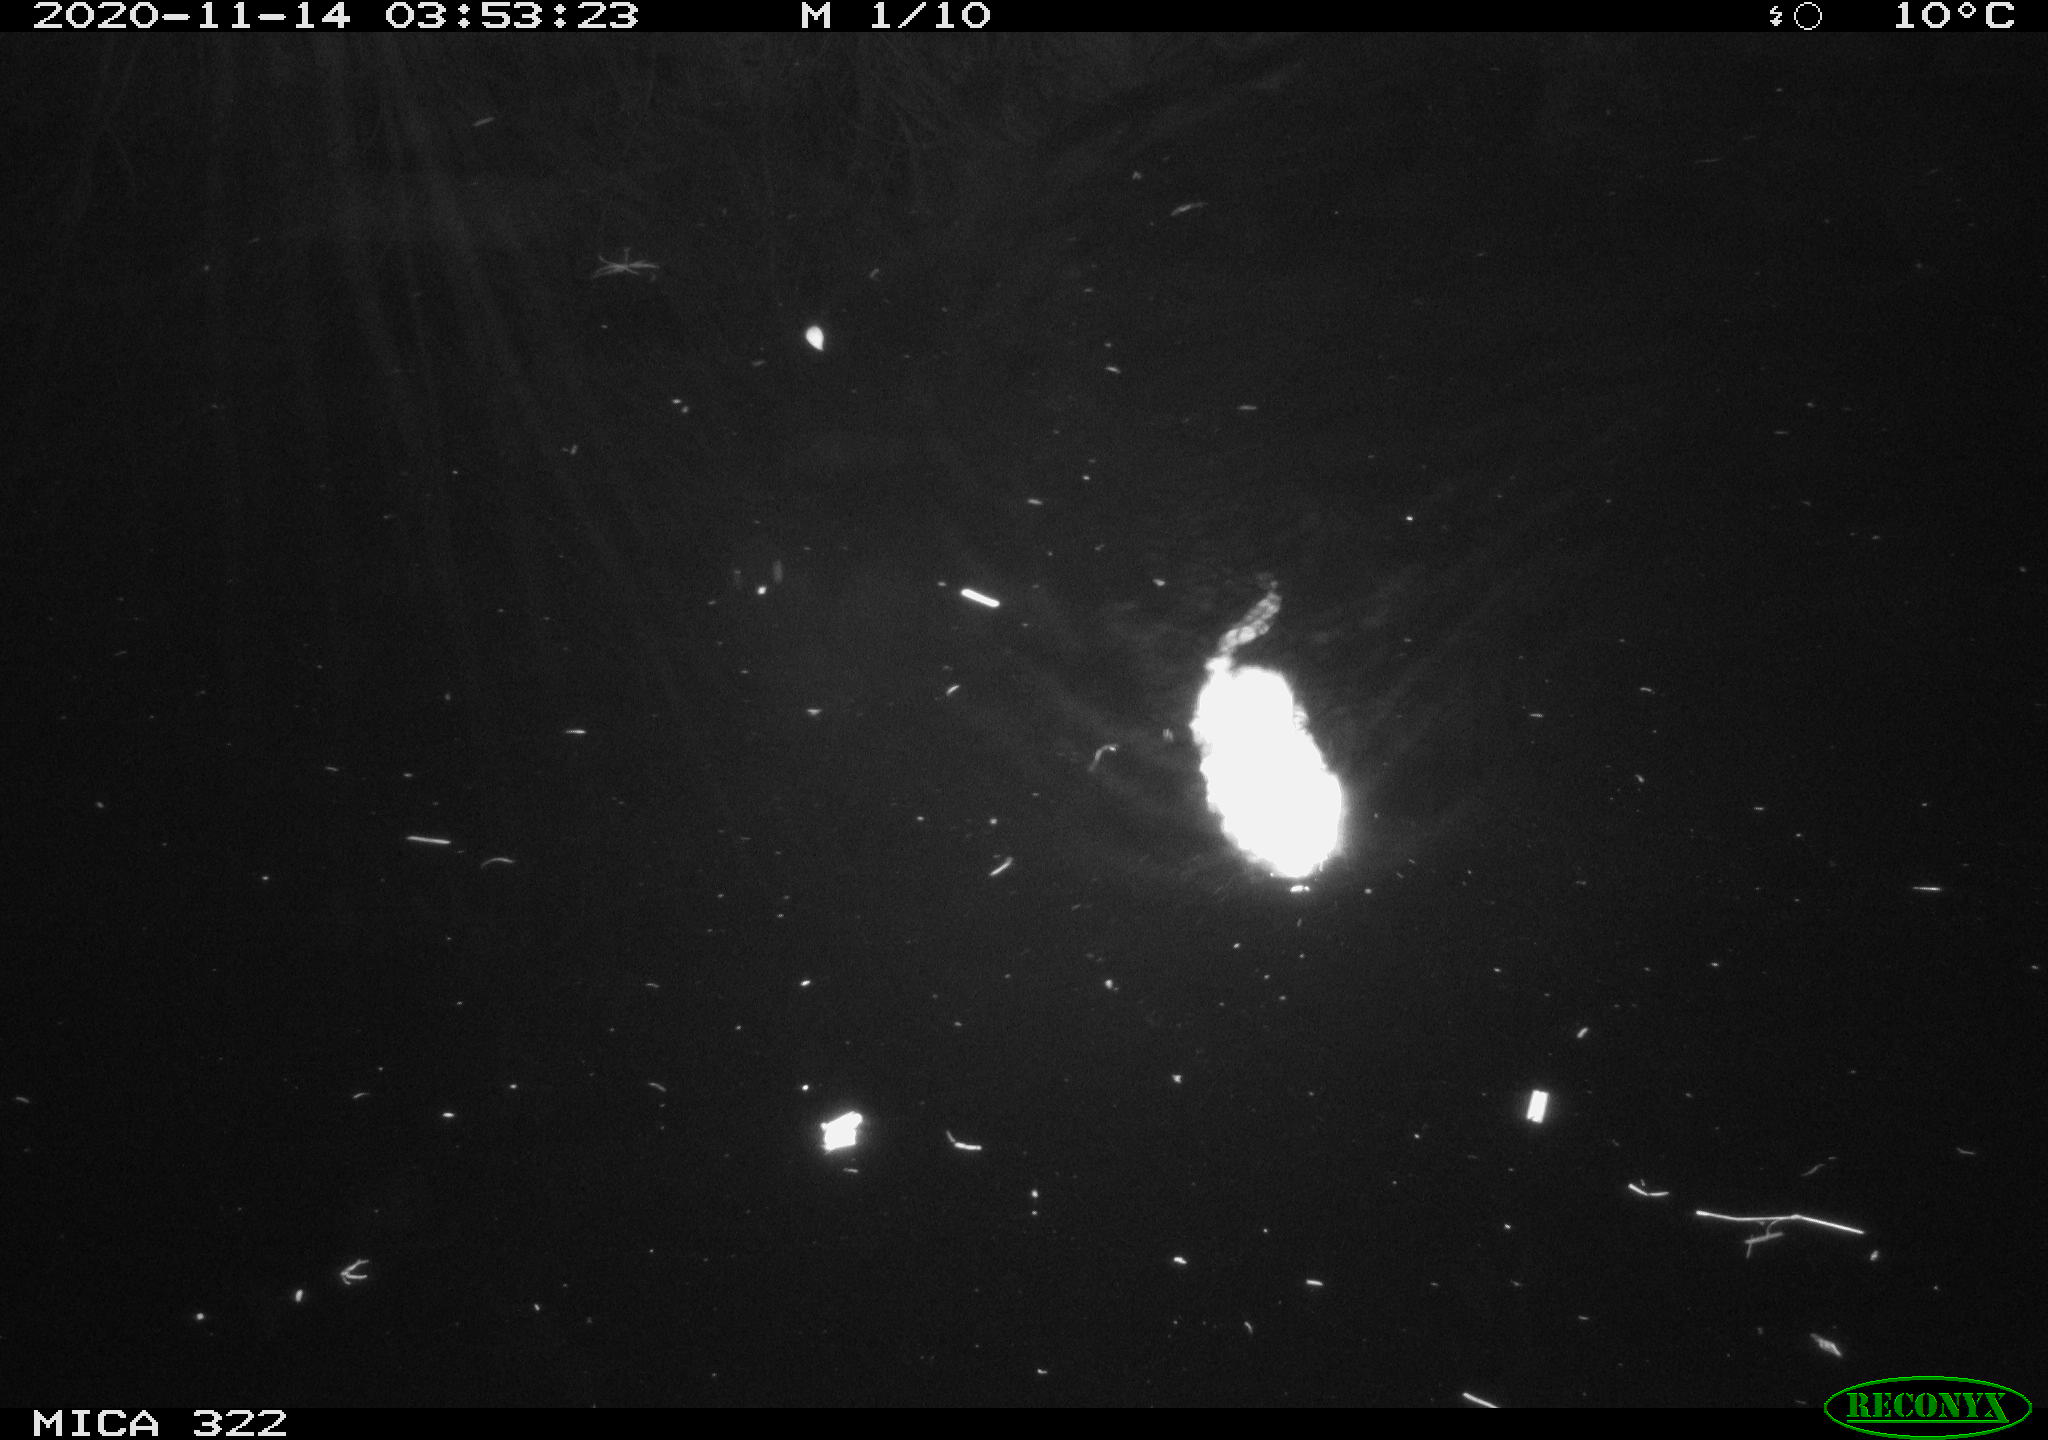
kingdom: Animalia
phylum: Chordata
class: Mammalia
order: Rodentia
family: Muridae
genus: Rattus
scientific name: Rattus norvegicus
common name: Brown rat
